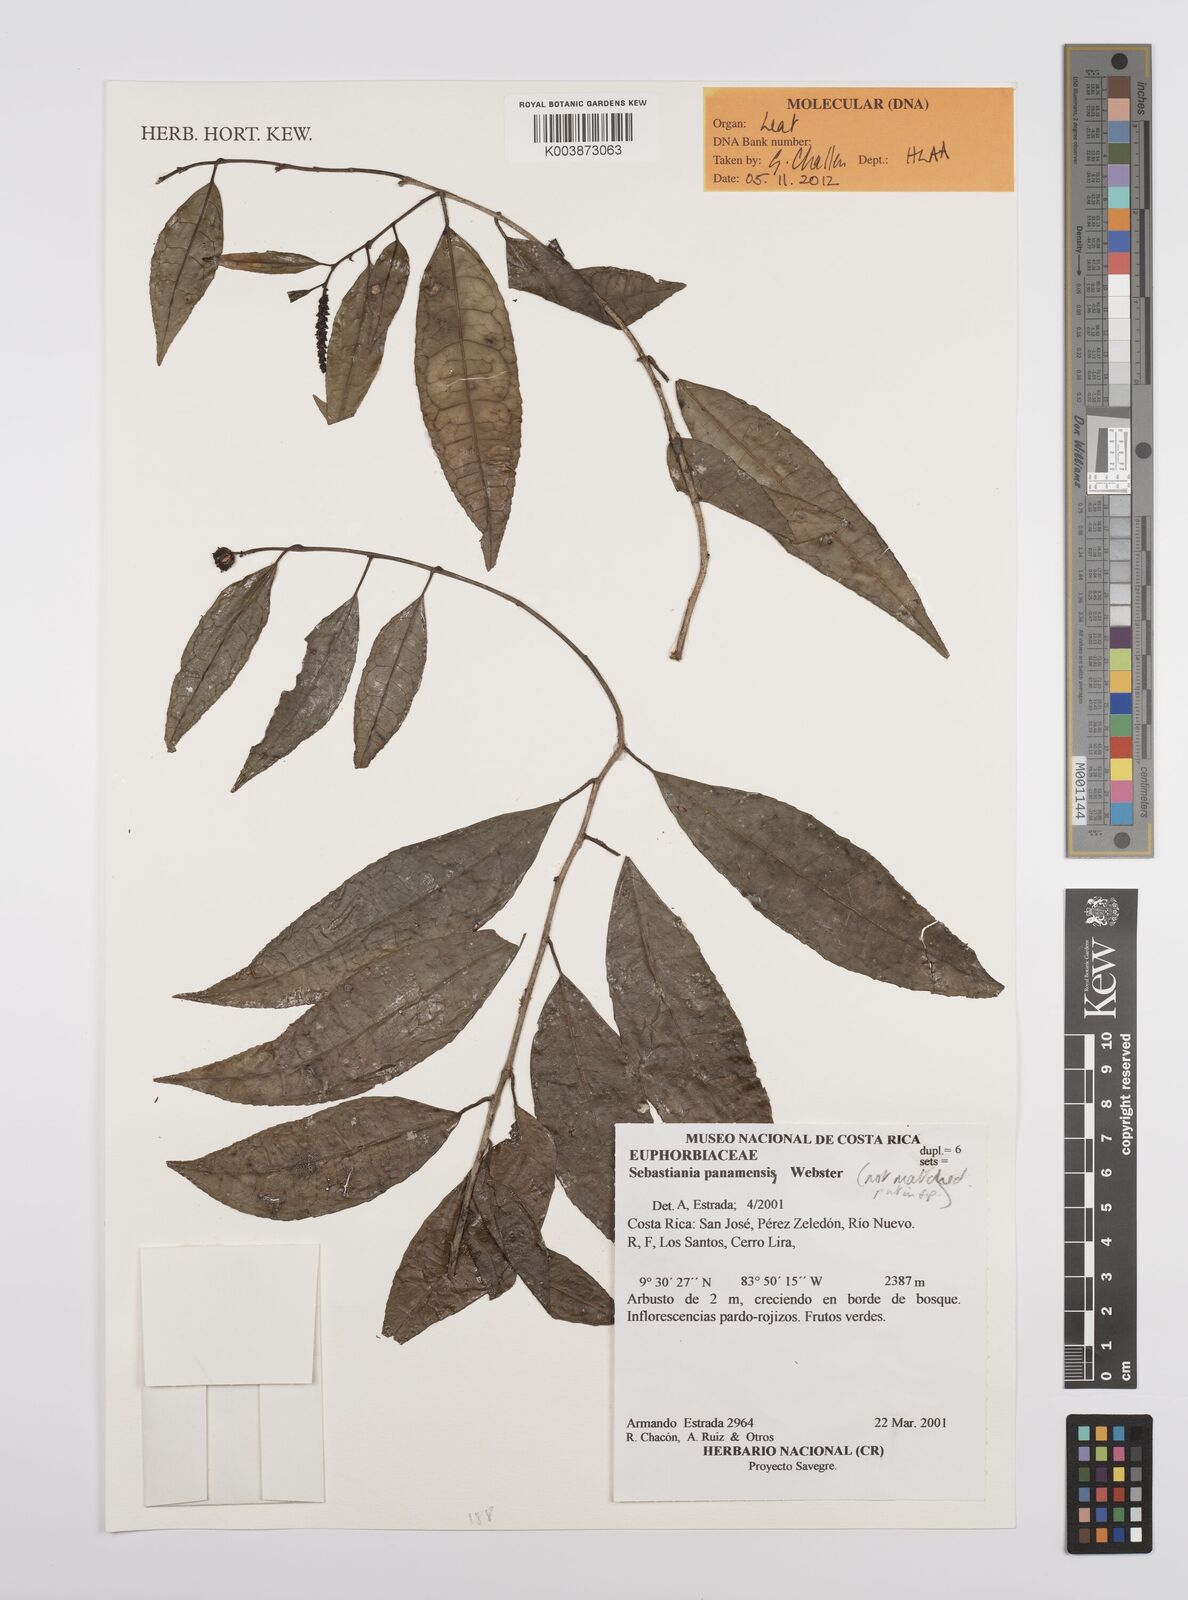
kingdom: Plantae
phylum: Tracheophyta
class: Magnoliopsida
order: Malpighiales
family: Euphorbiaceae
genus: Sebastiania
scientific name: Sebastiania
